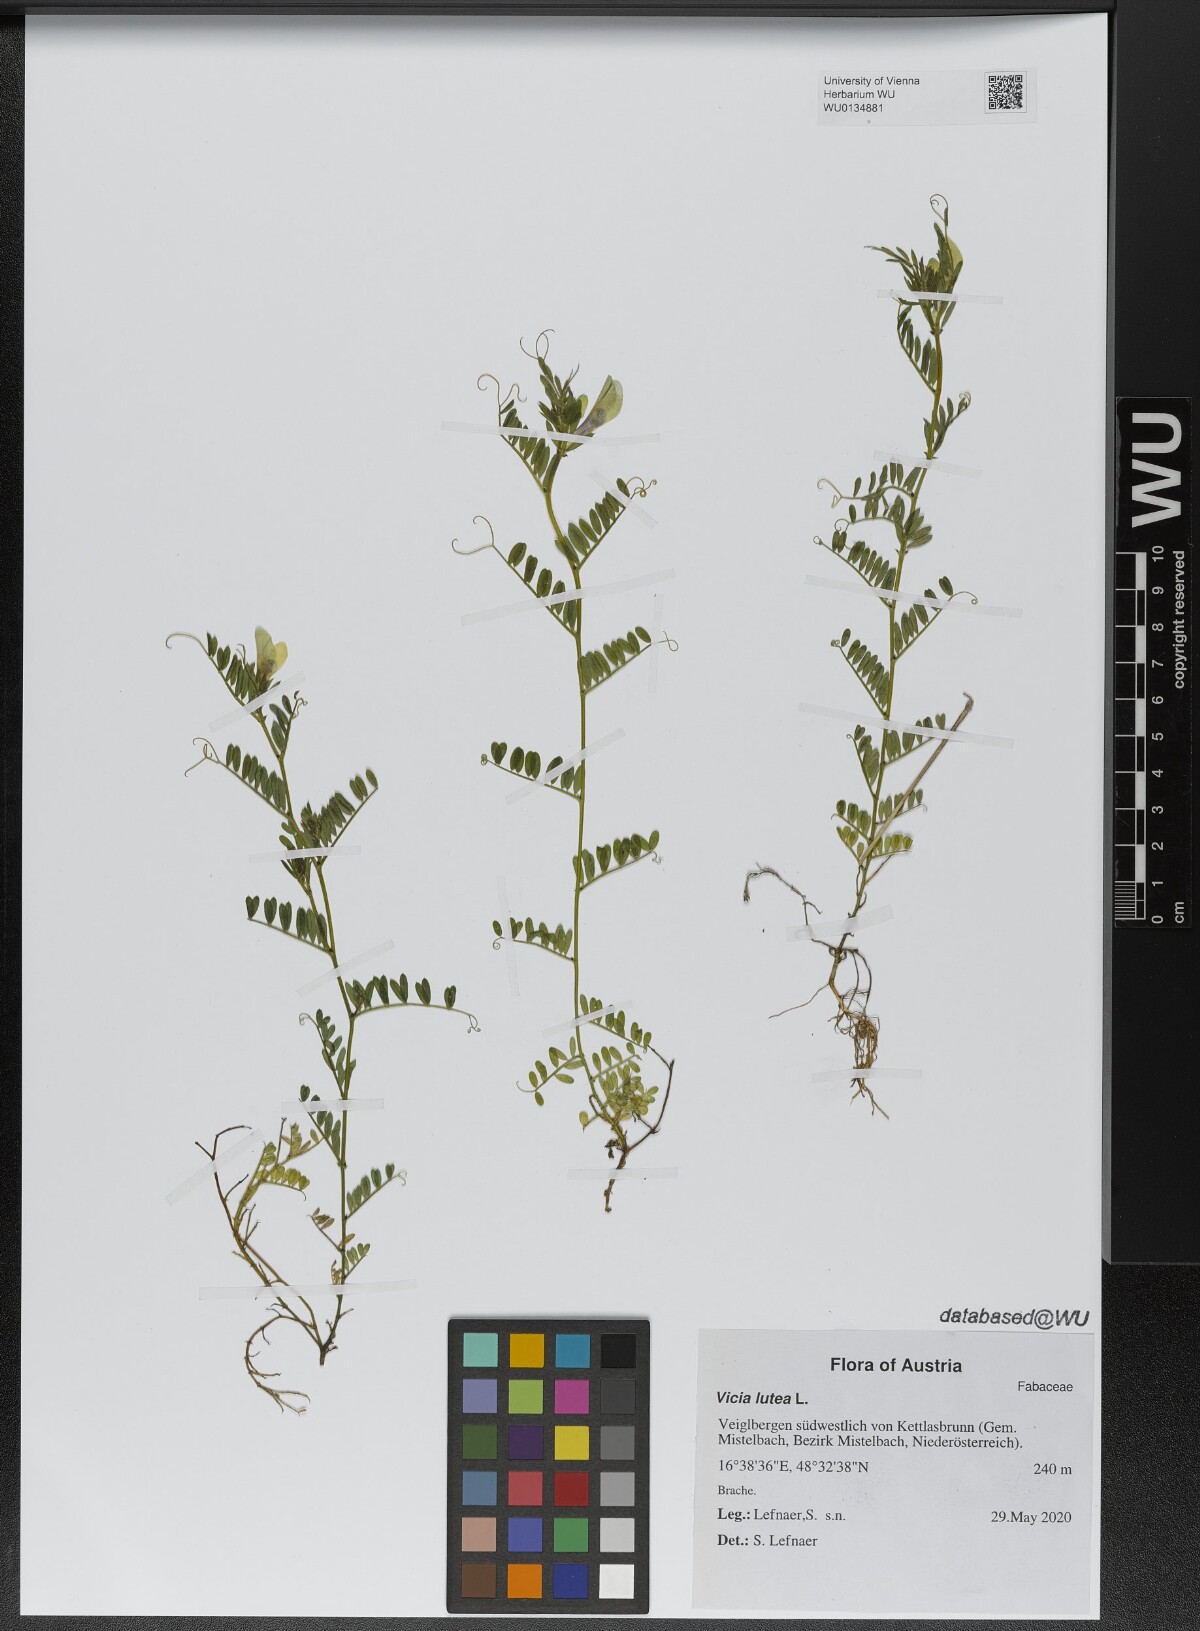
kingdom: Plantae
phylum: Tracheophyta
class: Magnoliopsida
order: Fabales
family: Fabaceae
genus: Vicia
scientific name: Vicia lutea
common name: Smooth yellow vetch
